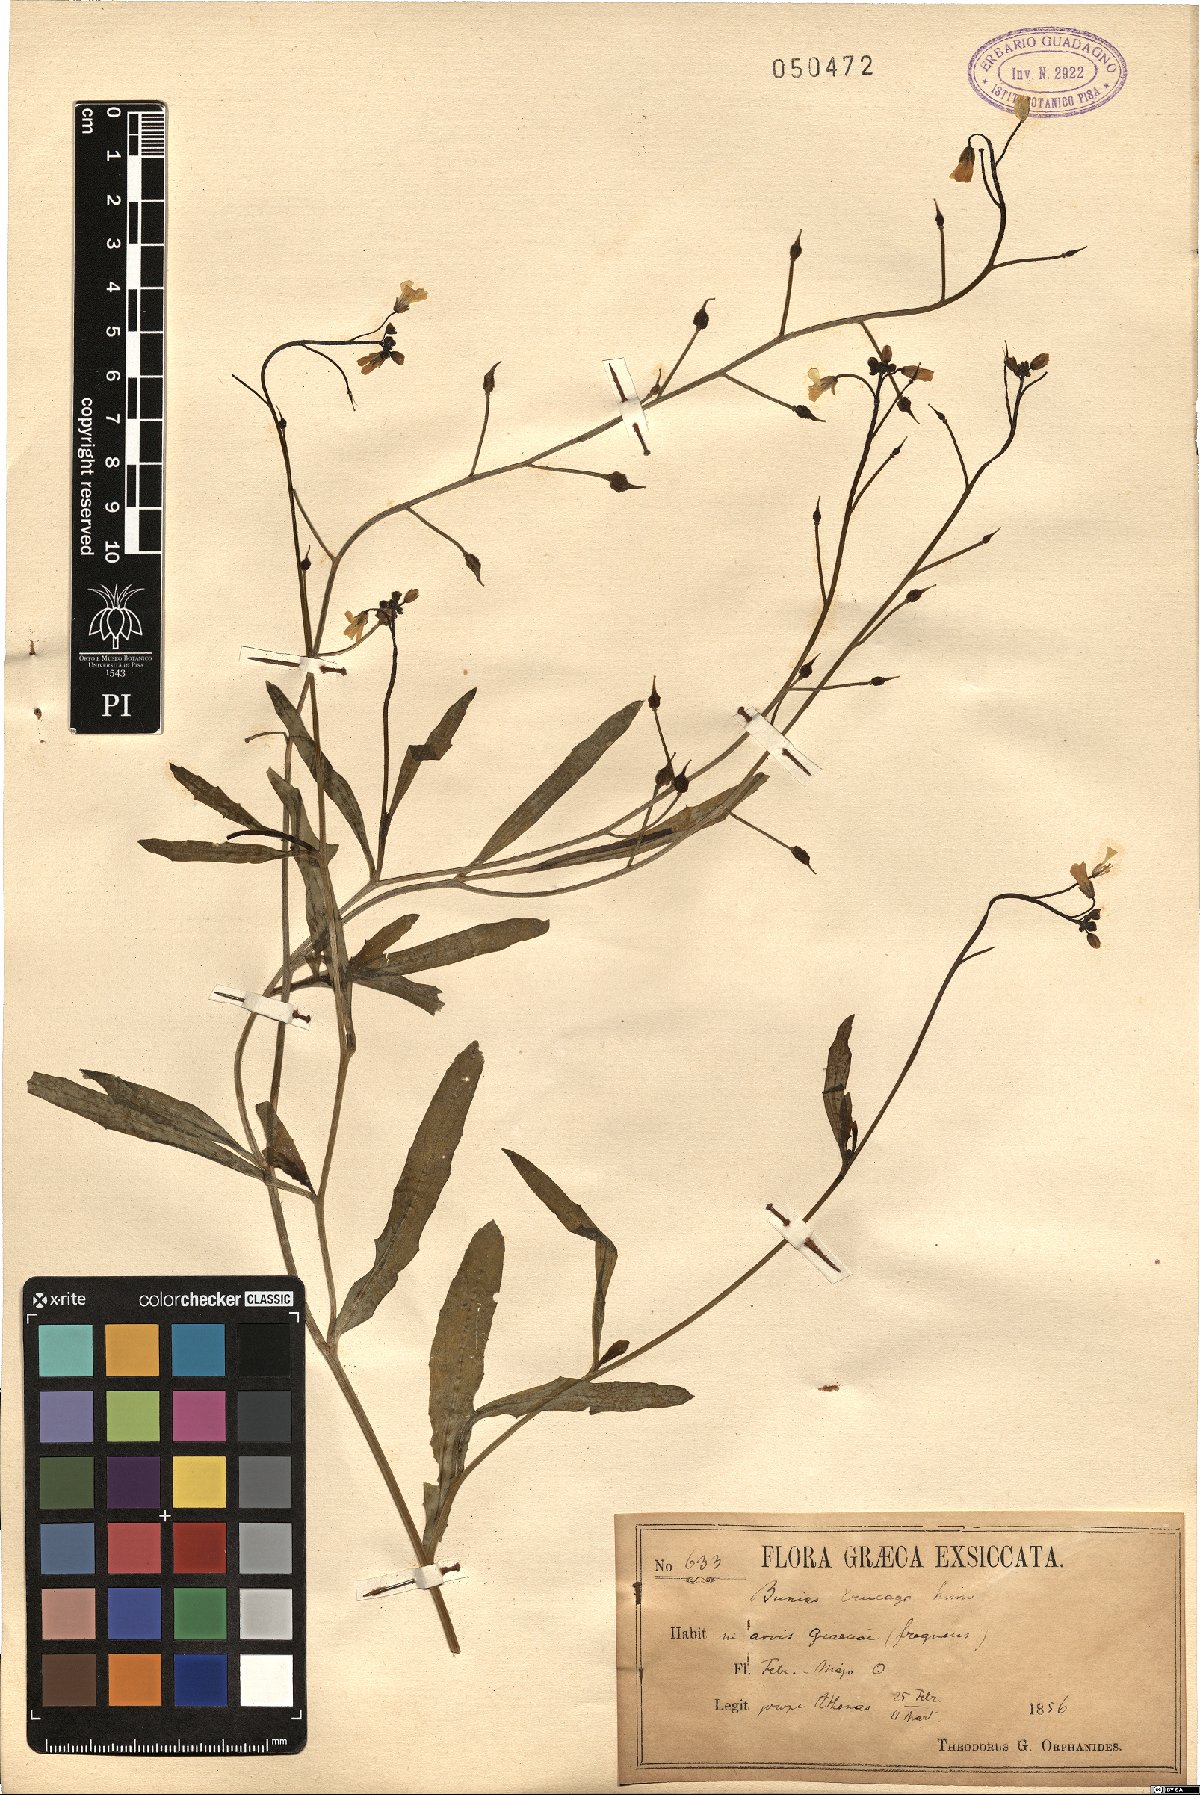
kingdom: Plantae
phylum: Tracheophyta
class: Magnoliopsida
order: Brassicales
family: Brassicaceae
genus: Bunias
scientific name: Bunias erucago
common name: Southern warty-cabbage
